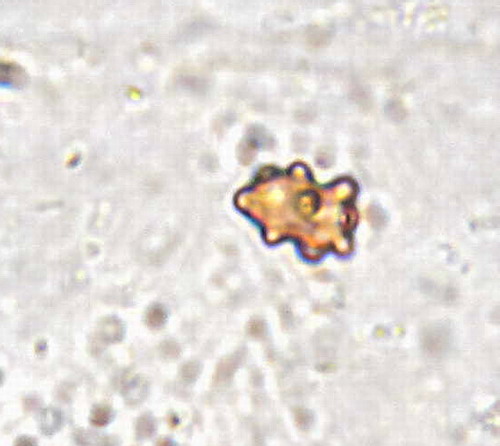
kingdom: Fungi
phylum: Basidiomycota
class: Agaricomycetes
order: Agaricales
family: Inocybaceae
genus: Inocybe
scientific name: Inocybe mixtilis
